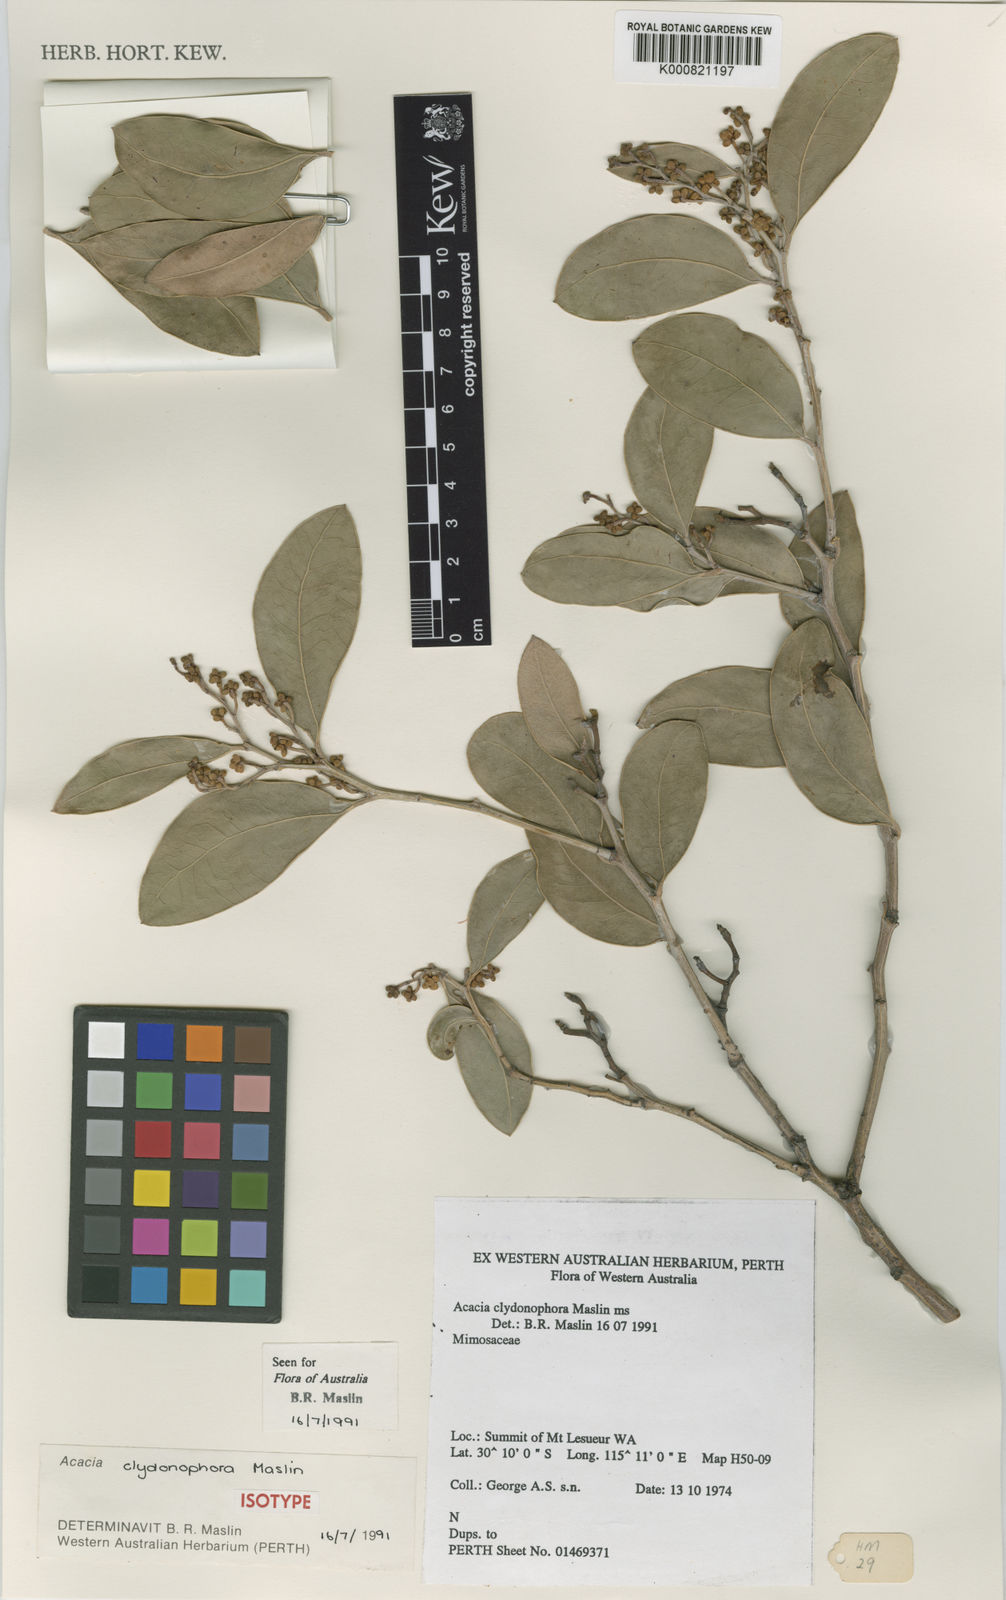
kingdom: Plantae
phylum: Tracheophyta
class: Magnoliopsida
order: Fabales
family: Fabaceae
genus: Acacia
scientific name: Acacia clydonophora
